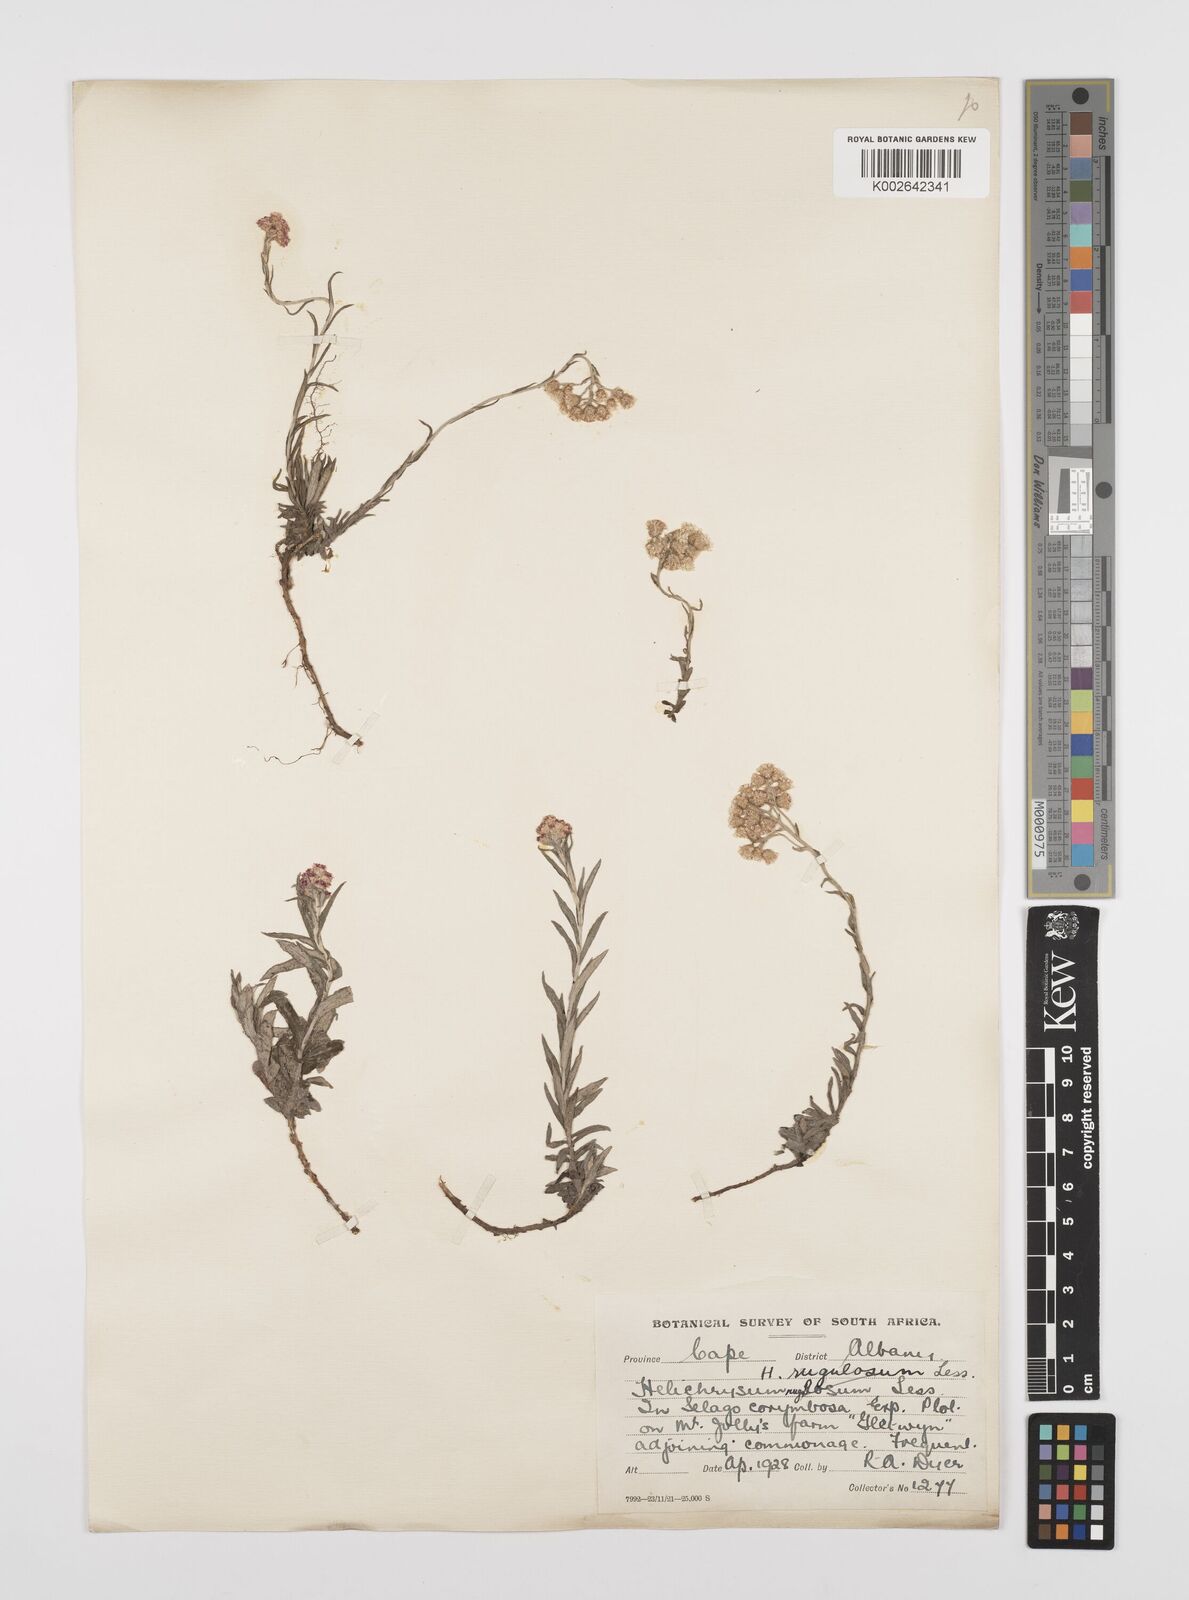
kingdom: Plantae
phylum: Tracheophyta
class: Magnoliopsida
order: Asterales
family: Asteraceae
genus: Helichrysum
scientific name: Helichrysum rugulosum
